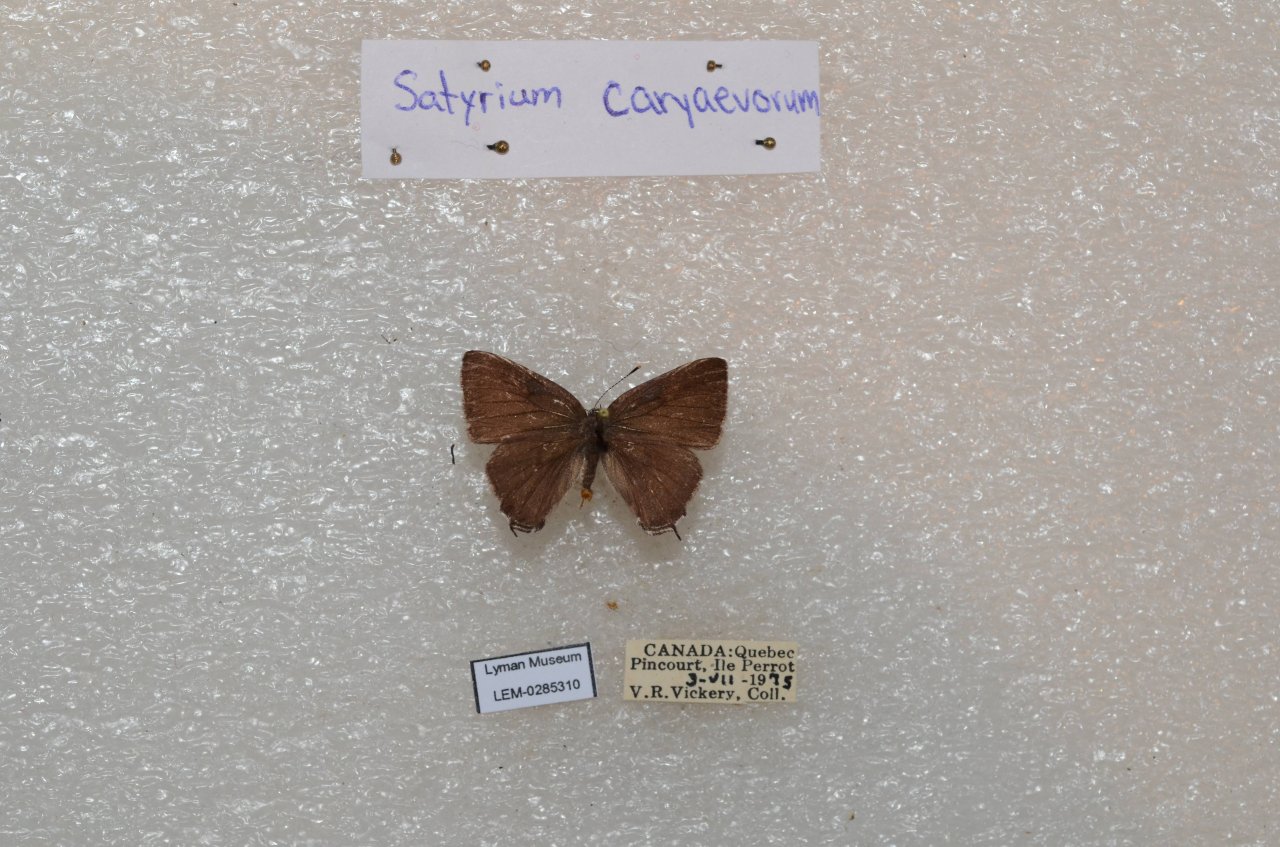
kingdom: Animalia
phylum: Arthropoda
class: Insecta
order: Lepidoptera
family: Lycaenidae
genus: Strymon
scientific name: Strymon caryaevorus
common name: Hickory Hairstreak
